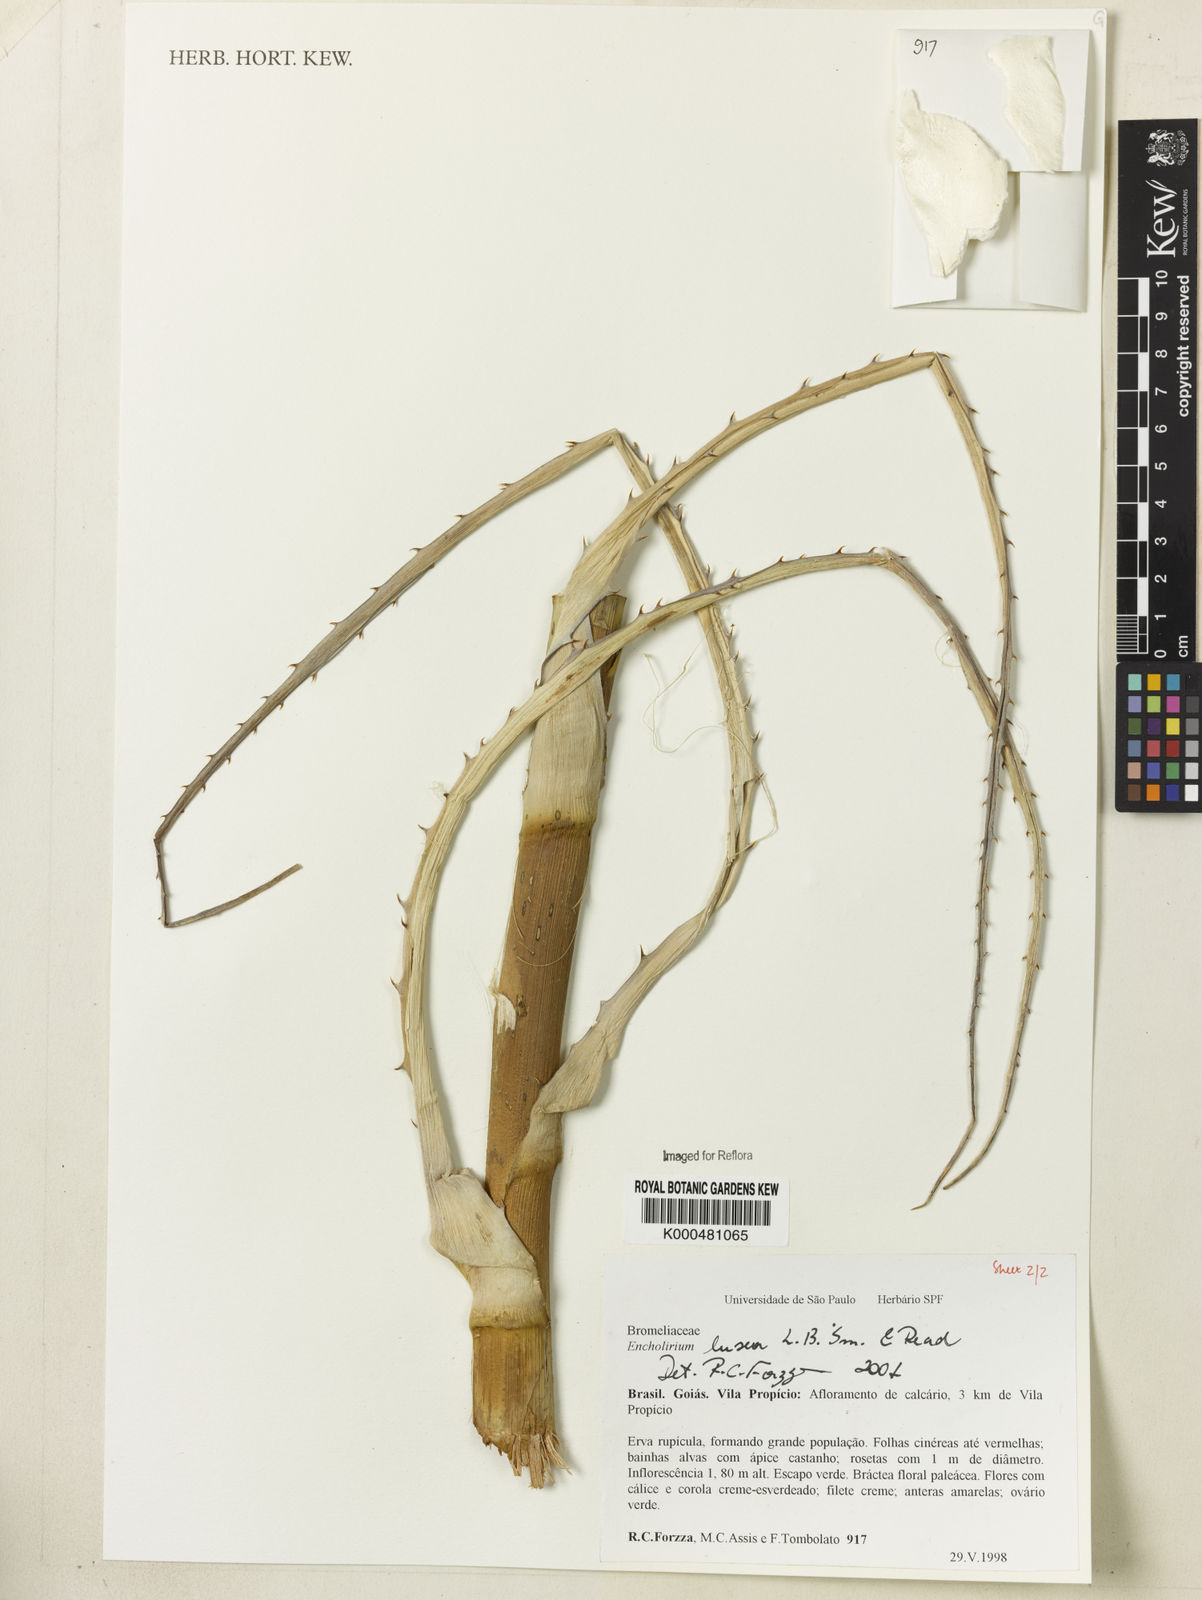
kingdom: Plantae
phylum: Tracheophyta
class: Liliopsida
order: Poales
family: Bromeliaceae
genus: Encholirium
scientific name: Encholirium luxor
